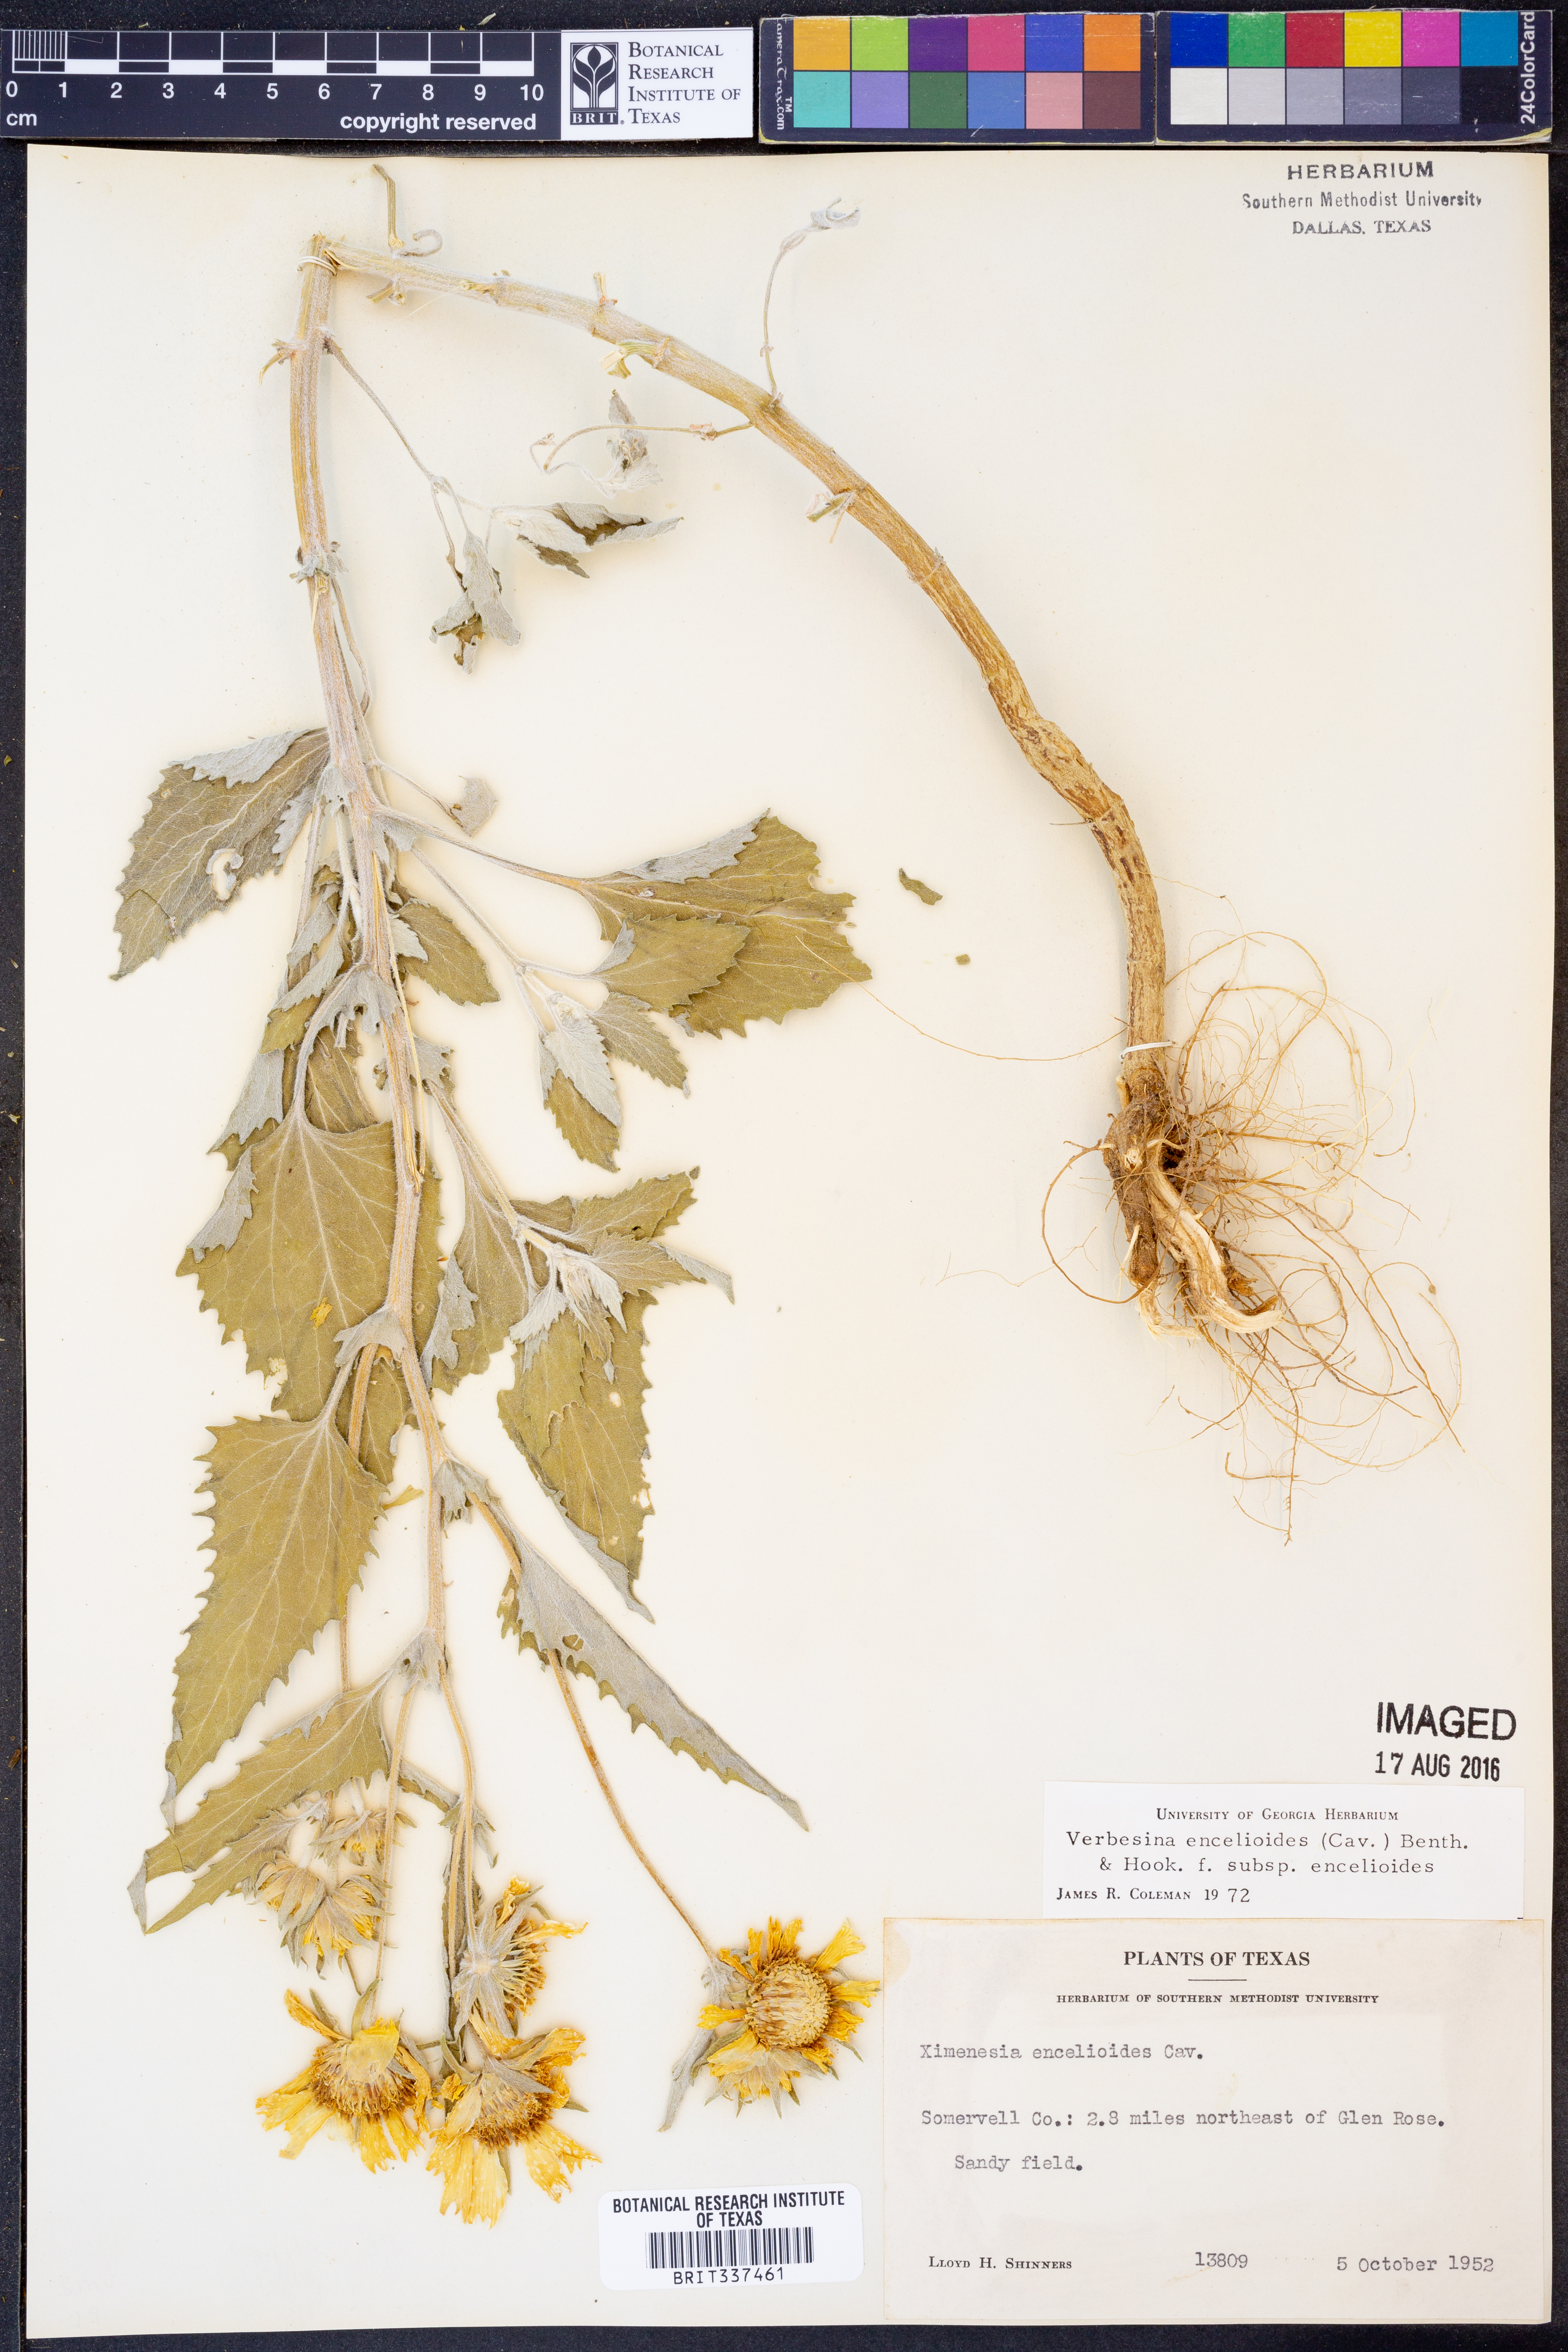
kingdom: Plantae
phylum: Tracheophyta
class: Magnoliopsida
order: Asterales
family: Asteraceae
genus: Verbesina
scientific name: Verbesina encelioides
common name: Golden crownbeard
